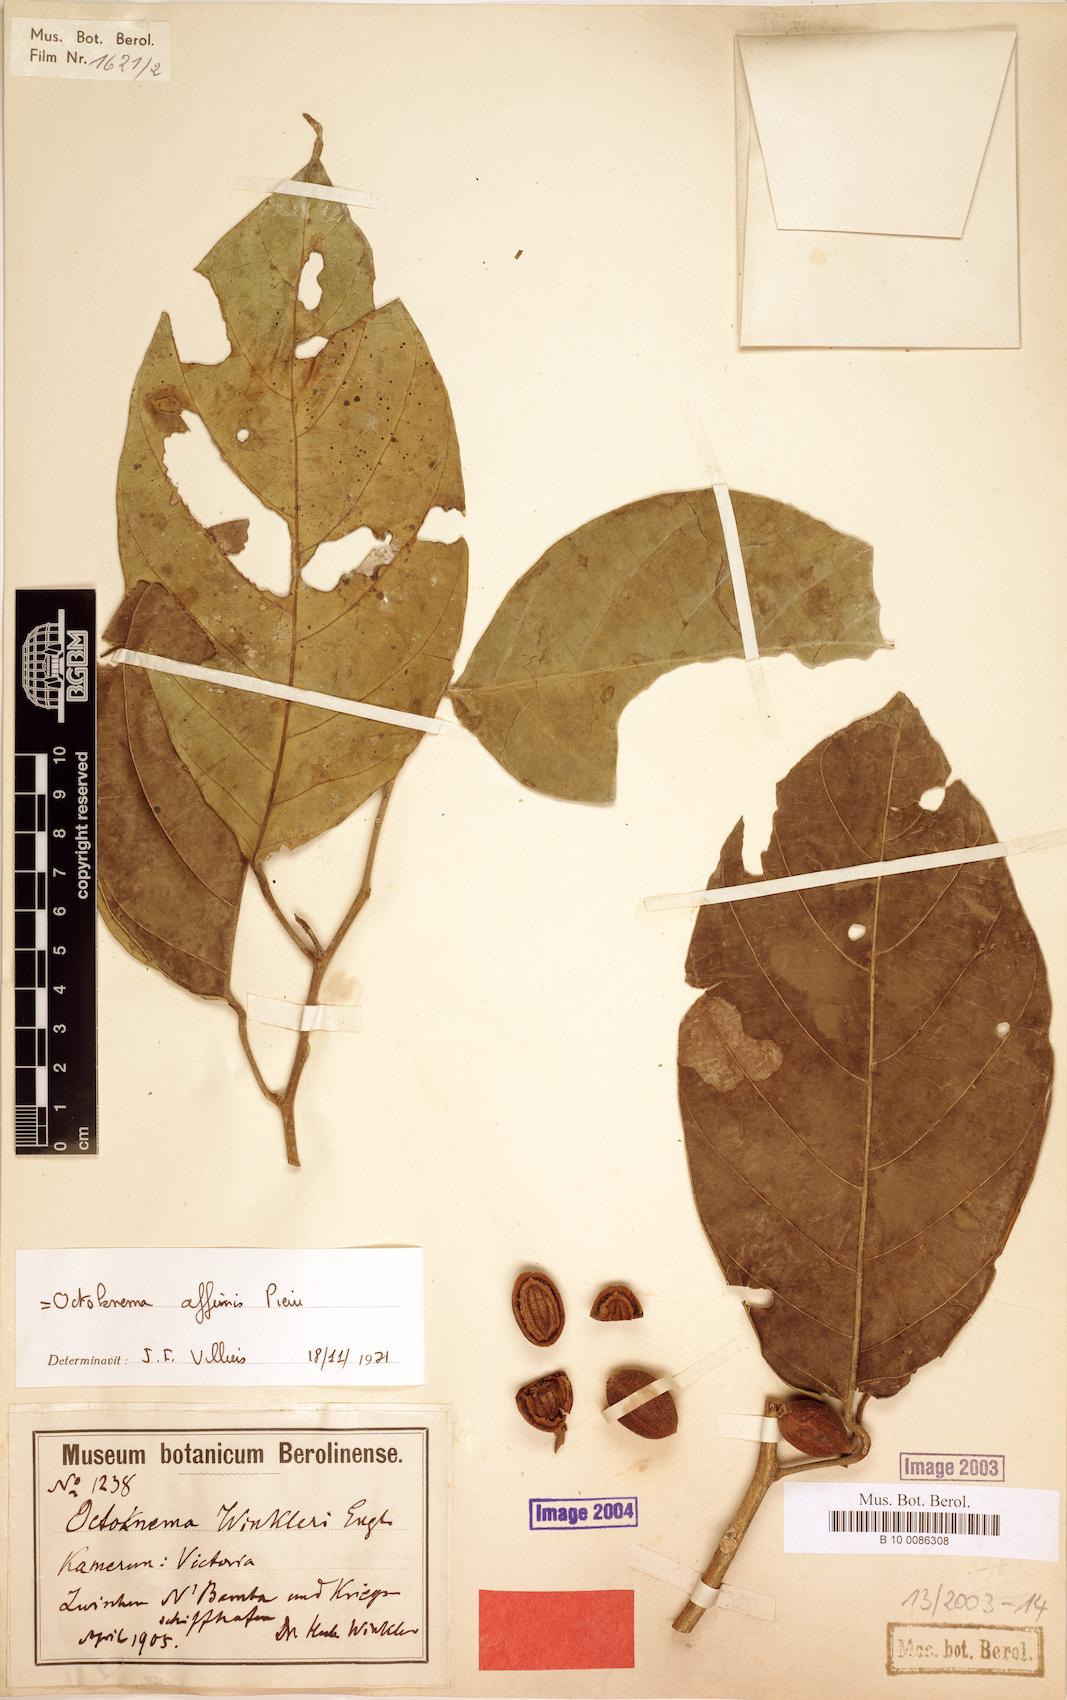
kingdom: Plantae
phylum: Tracheophyta
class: Magnoliopsida
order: Santalales
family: Octoknemaceae
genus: Octoknema
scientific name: Octoknema affinis
